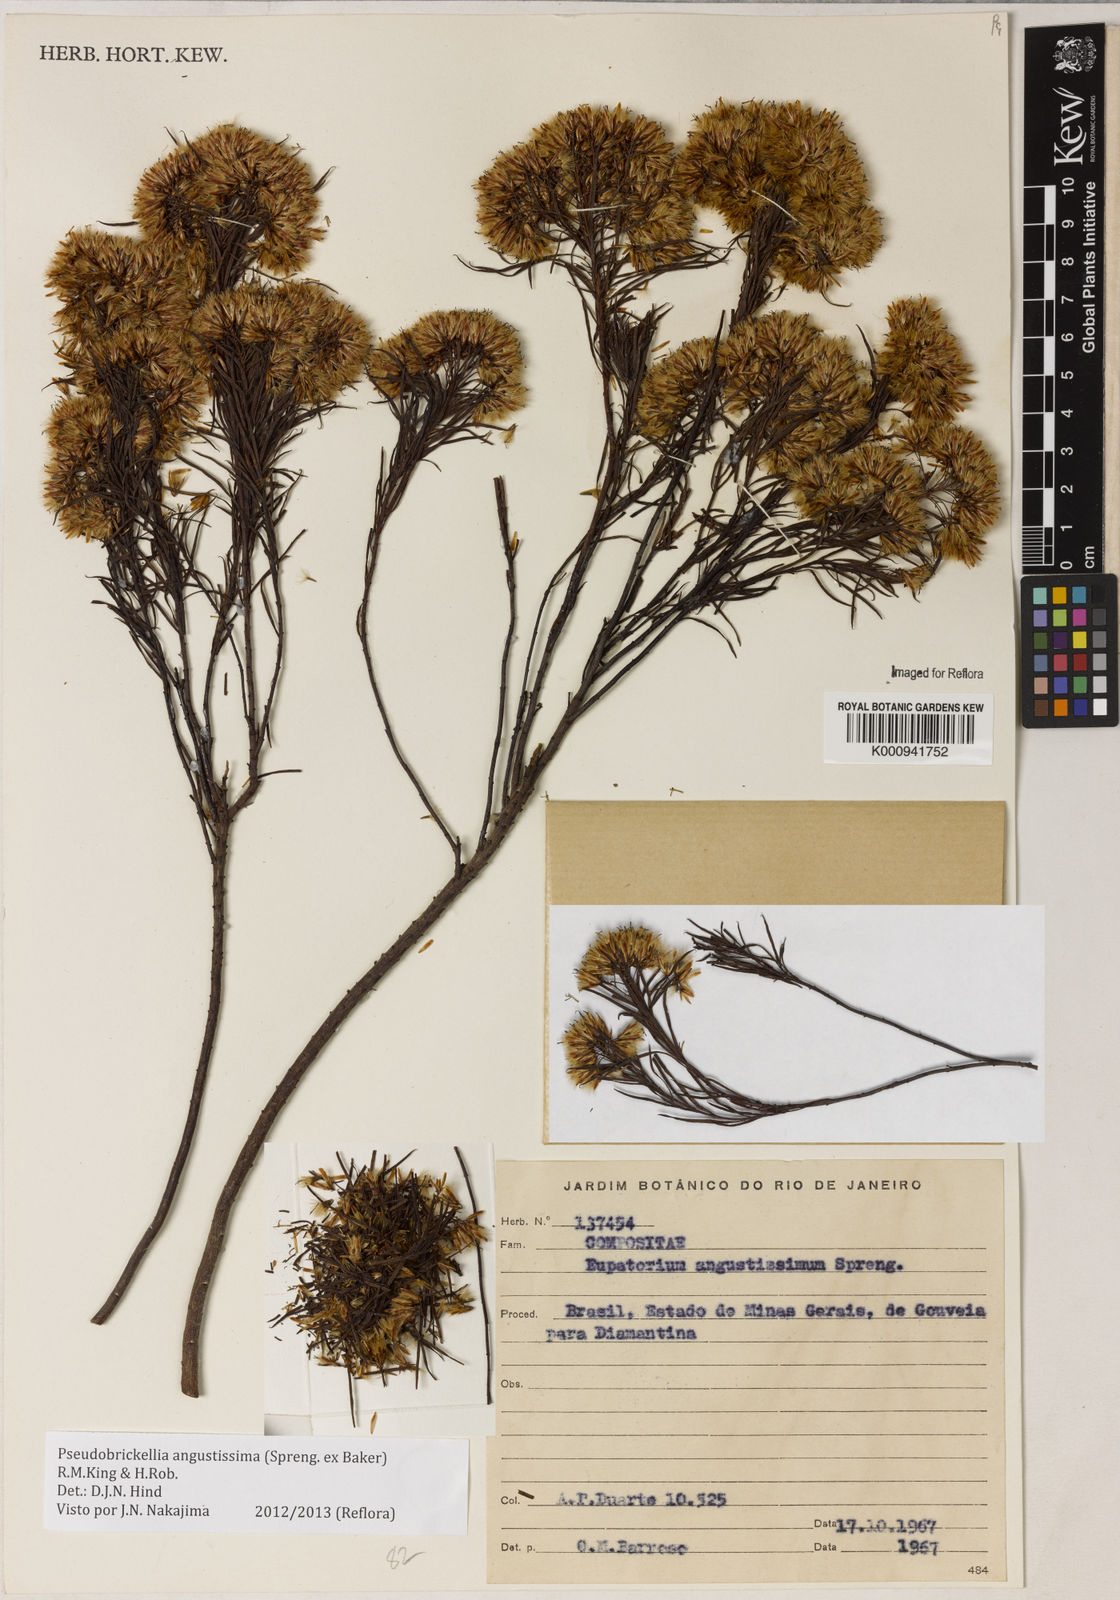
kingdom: Plantae
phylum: Tracheophyta
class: Magnoliopsida
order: Asterales
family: Asteraceae
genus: Pseudobrickellia
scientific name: Pseudobrickellia angustissima
